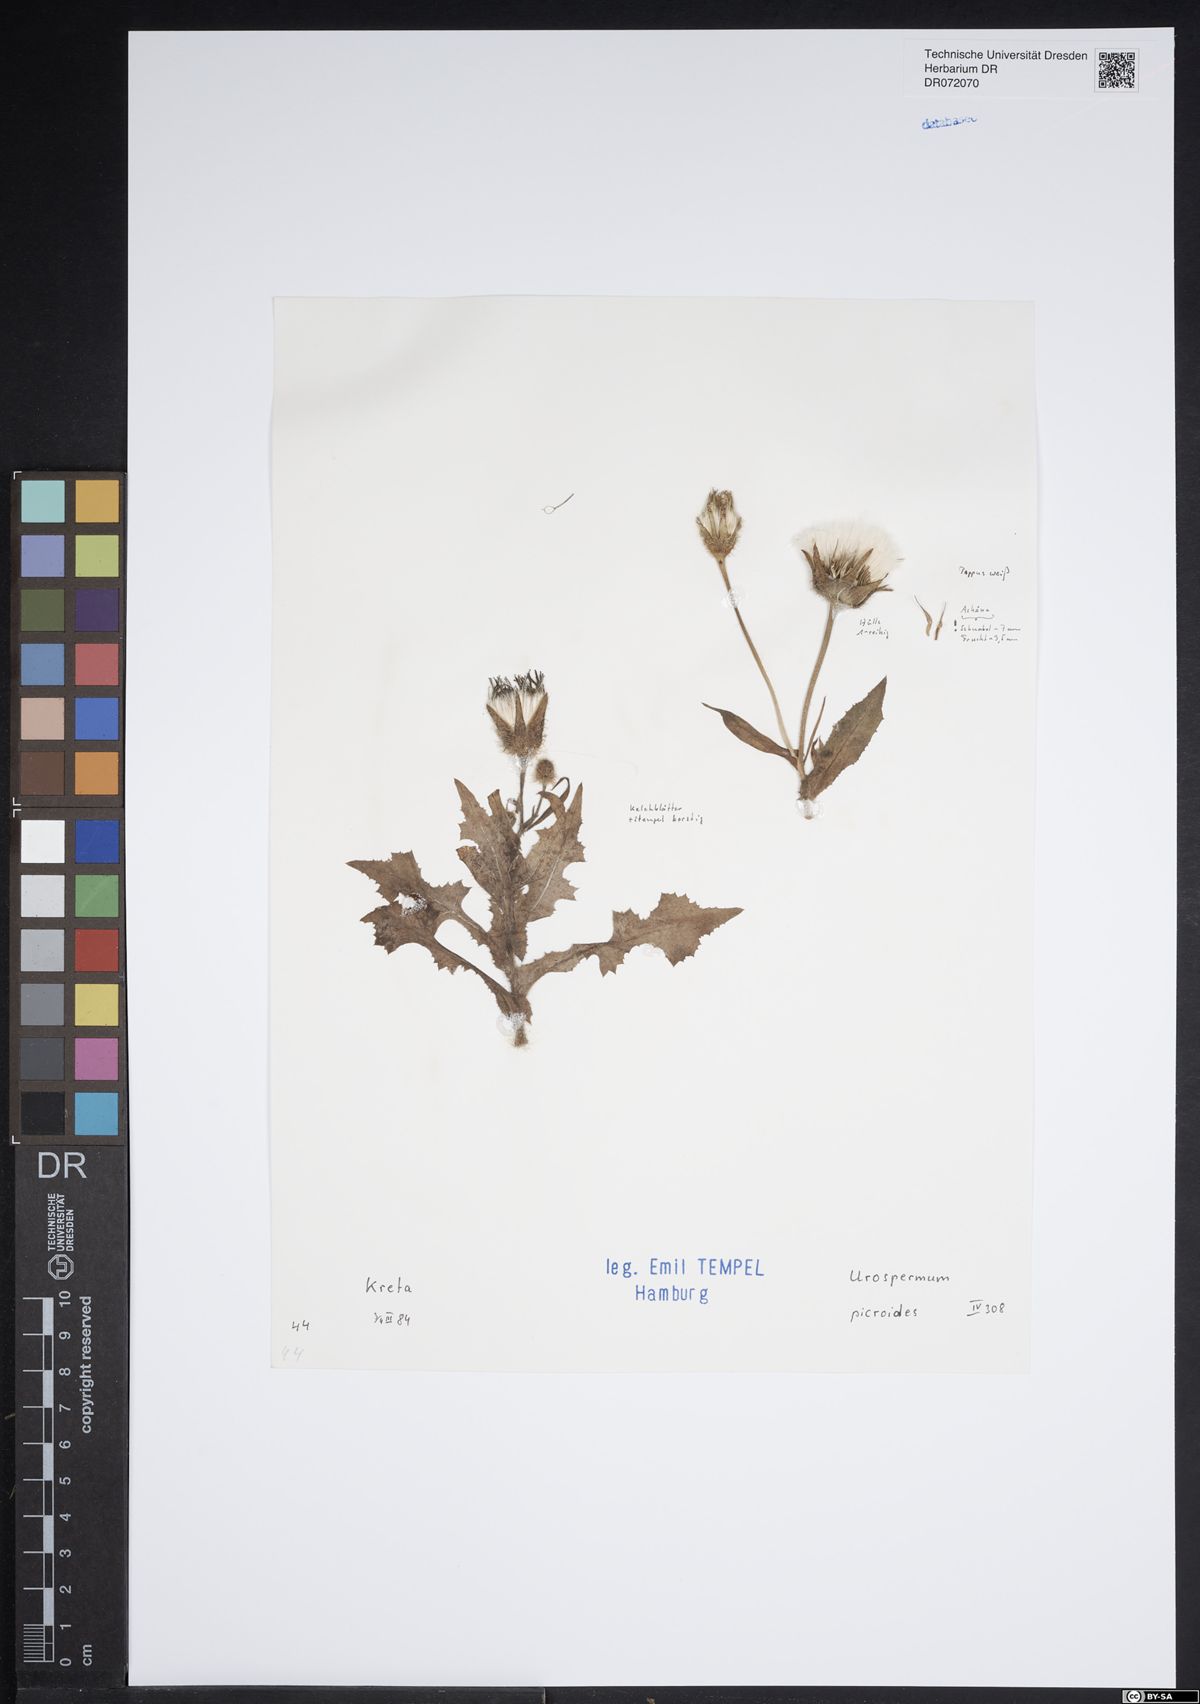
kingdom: Plantae
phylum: Tracheophyta
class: Magnoliopsida
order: Asterales
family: Asteraceae
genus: Urospermum
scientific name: Urospermum picroides
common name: False hawkbit
